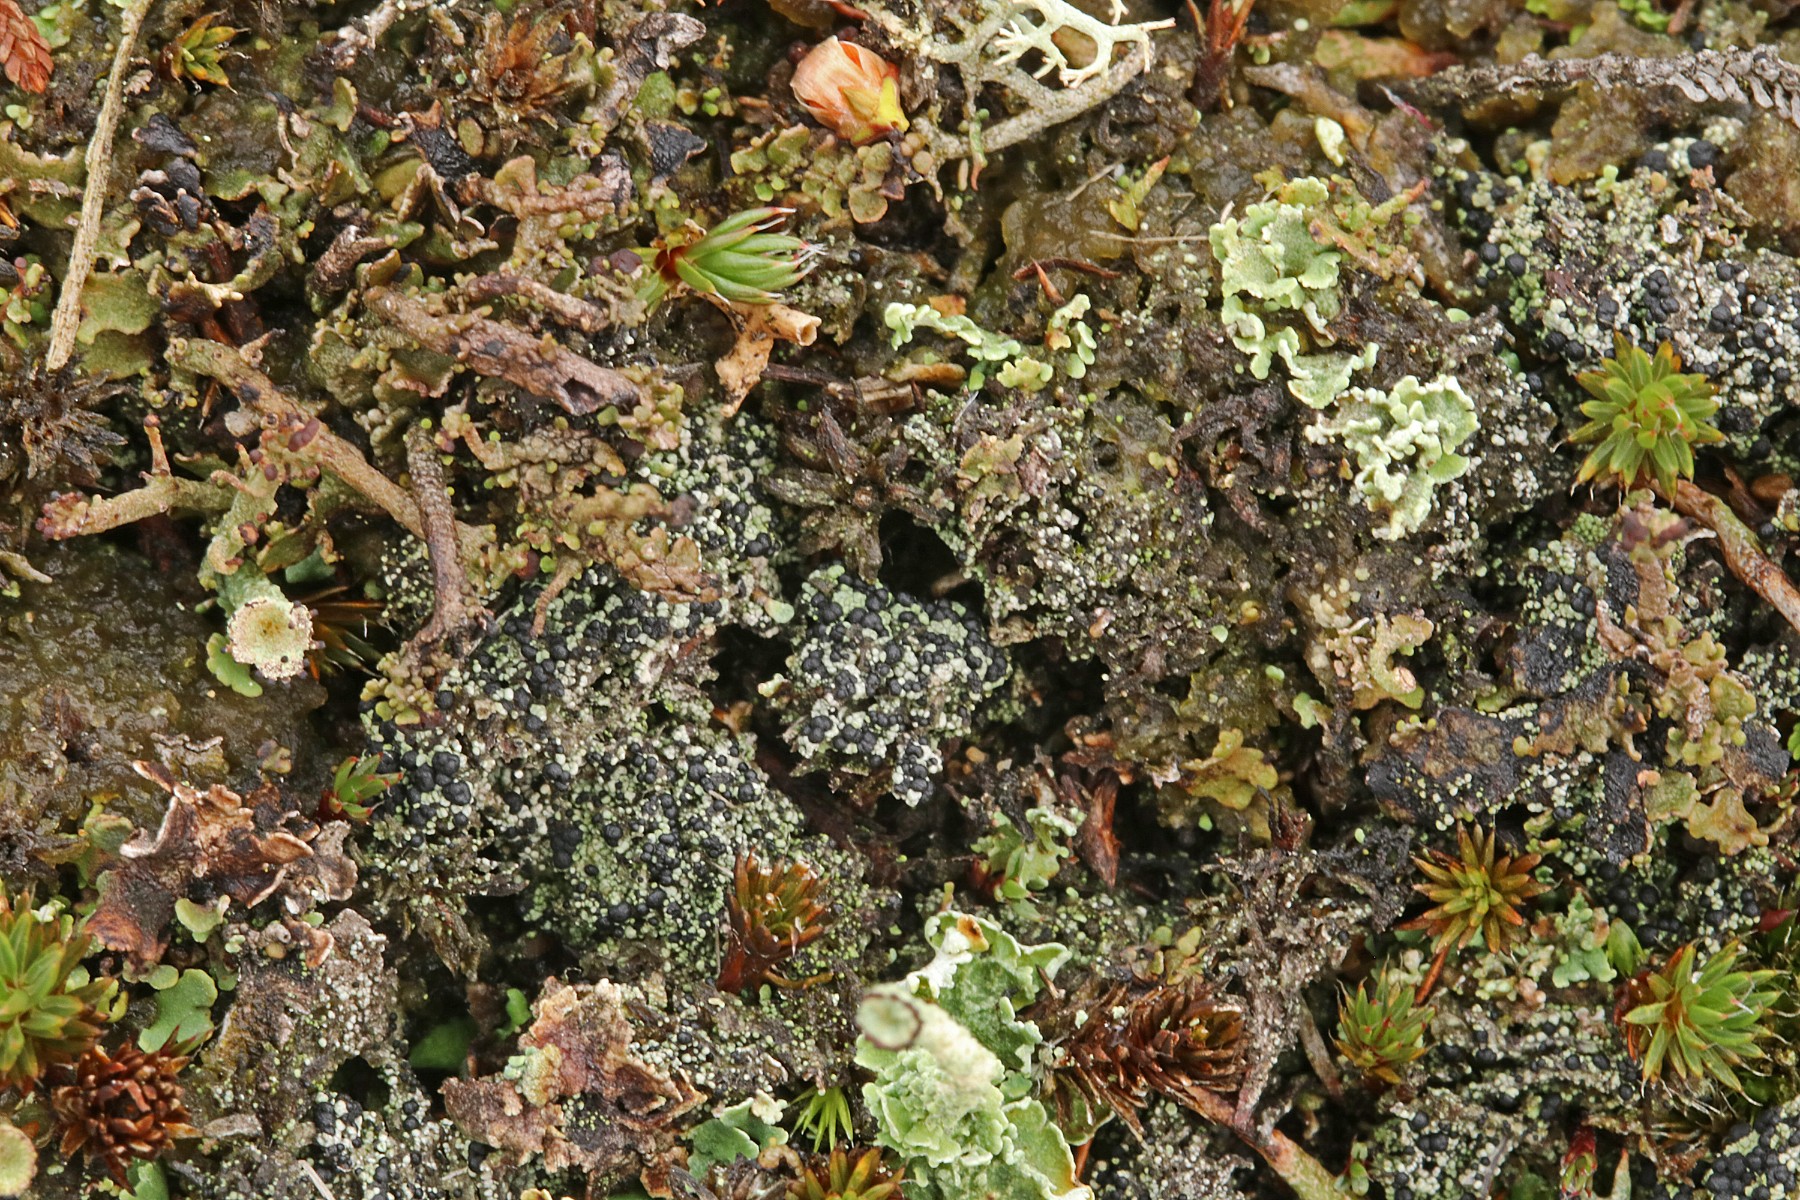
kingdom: Fungi
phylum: Ascomycota
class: Lecanoromycetes
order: Lecanorales
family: Byssolomataceae
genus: Micarea
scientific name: Micarea lignaria
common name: tørve-knaplav
